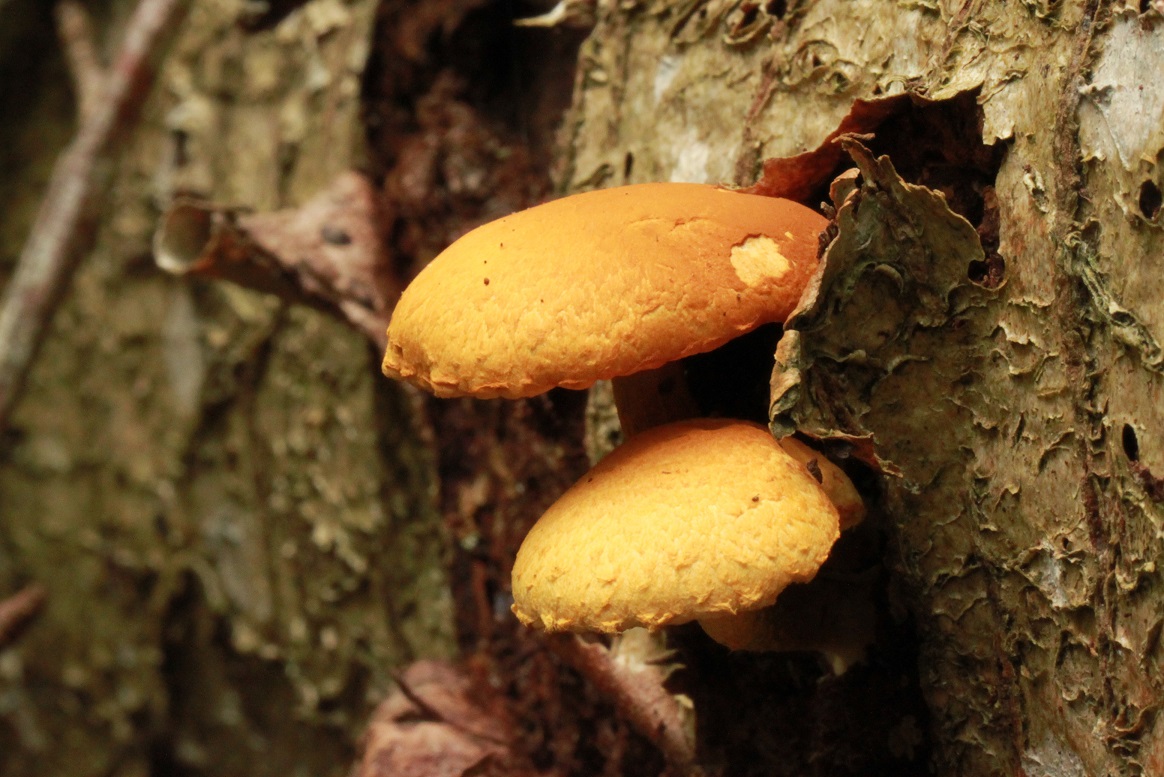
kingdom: Fungi
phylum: Basidiomycota
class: Agaricomycetes
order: Agaricales
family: Strophariaceae
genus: Pholiota
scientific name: Pholiota tuberculosa
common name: finskællet skælhat
